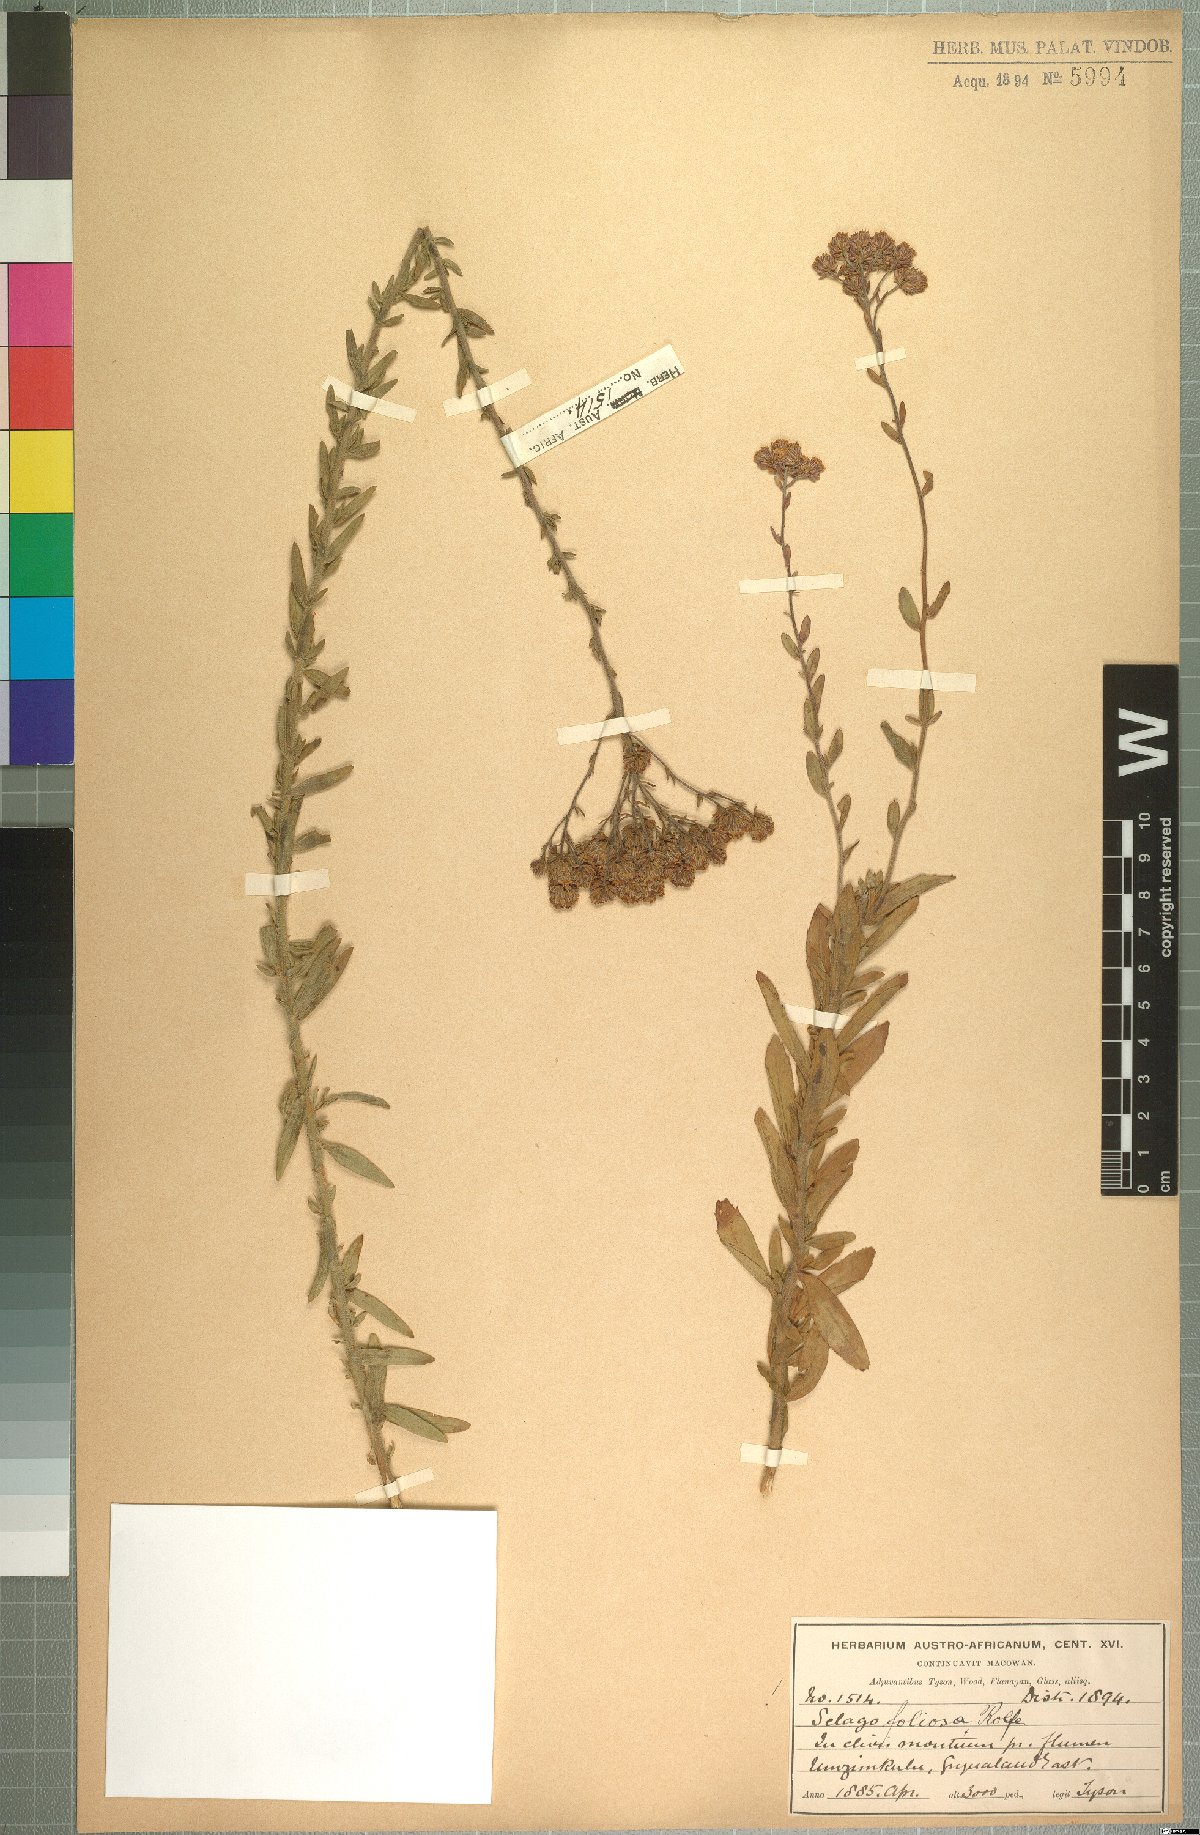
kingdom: Plantae
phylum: Tracheophyta
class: Magnoliopsida
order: Lamiales
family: Scrophulariaceae
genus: Selago
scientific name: Selago foliosa
